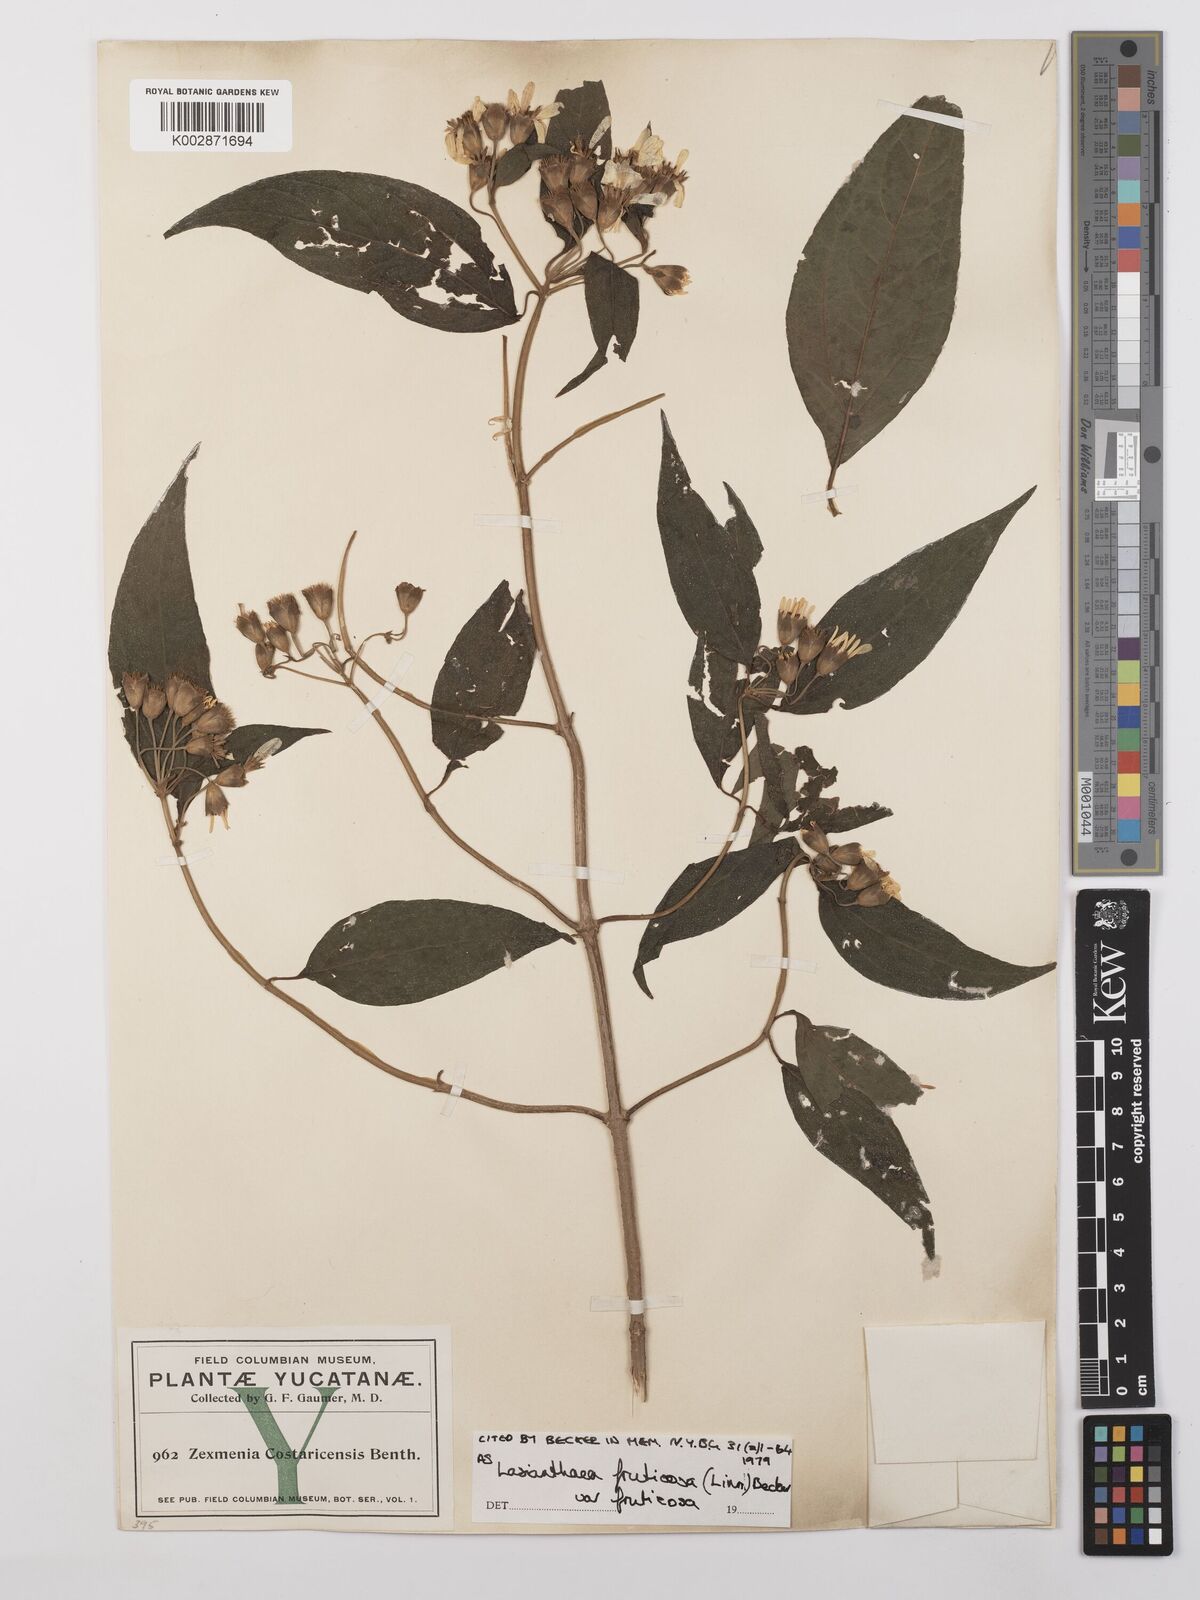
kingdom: Plantae
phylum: Tracheophyta
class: Magnoliopsida
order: Asterales
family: Asteraceae
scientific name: Asteraceae
